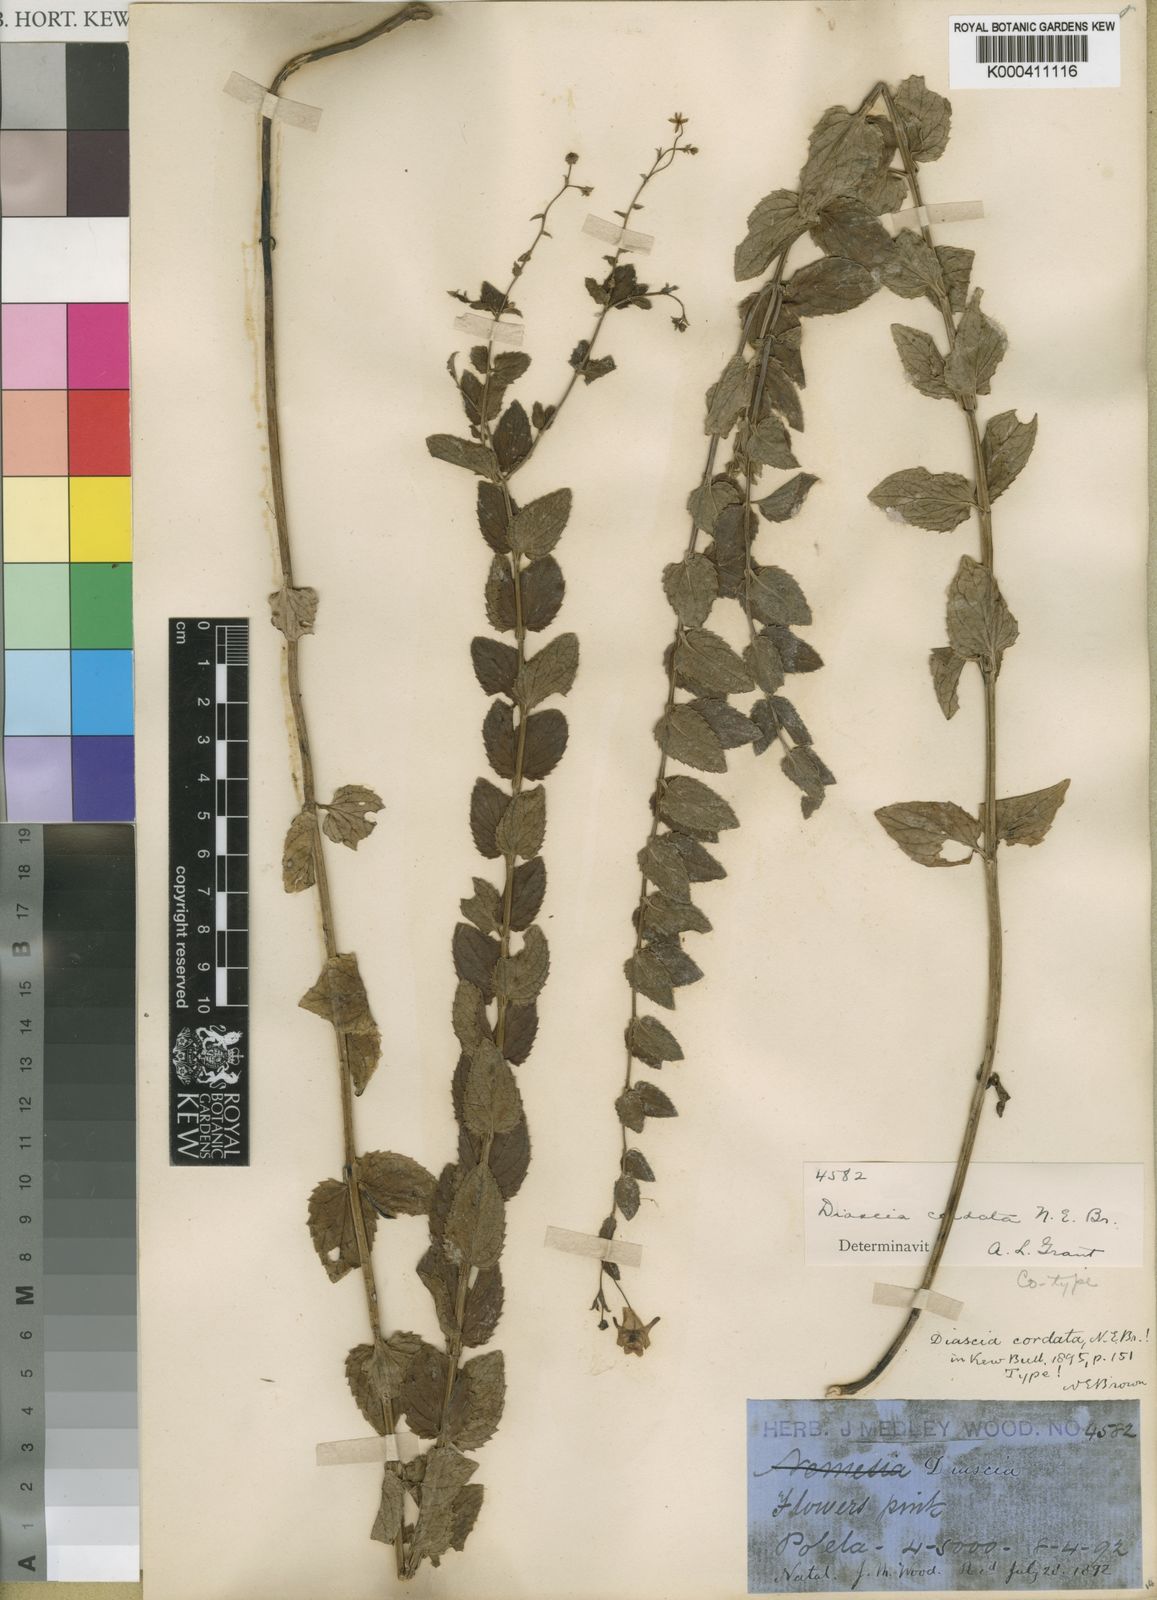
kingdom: Plantae
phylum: Tracheophyta
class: Magnoliopsida
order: Lamiales
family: Scrophulariaceae
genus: Diascia
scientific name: Diascia cordata
